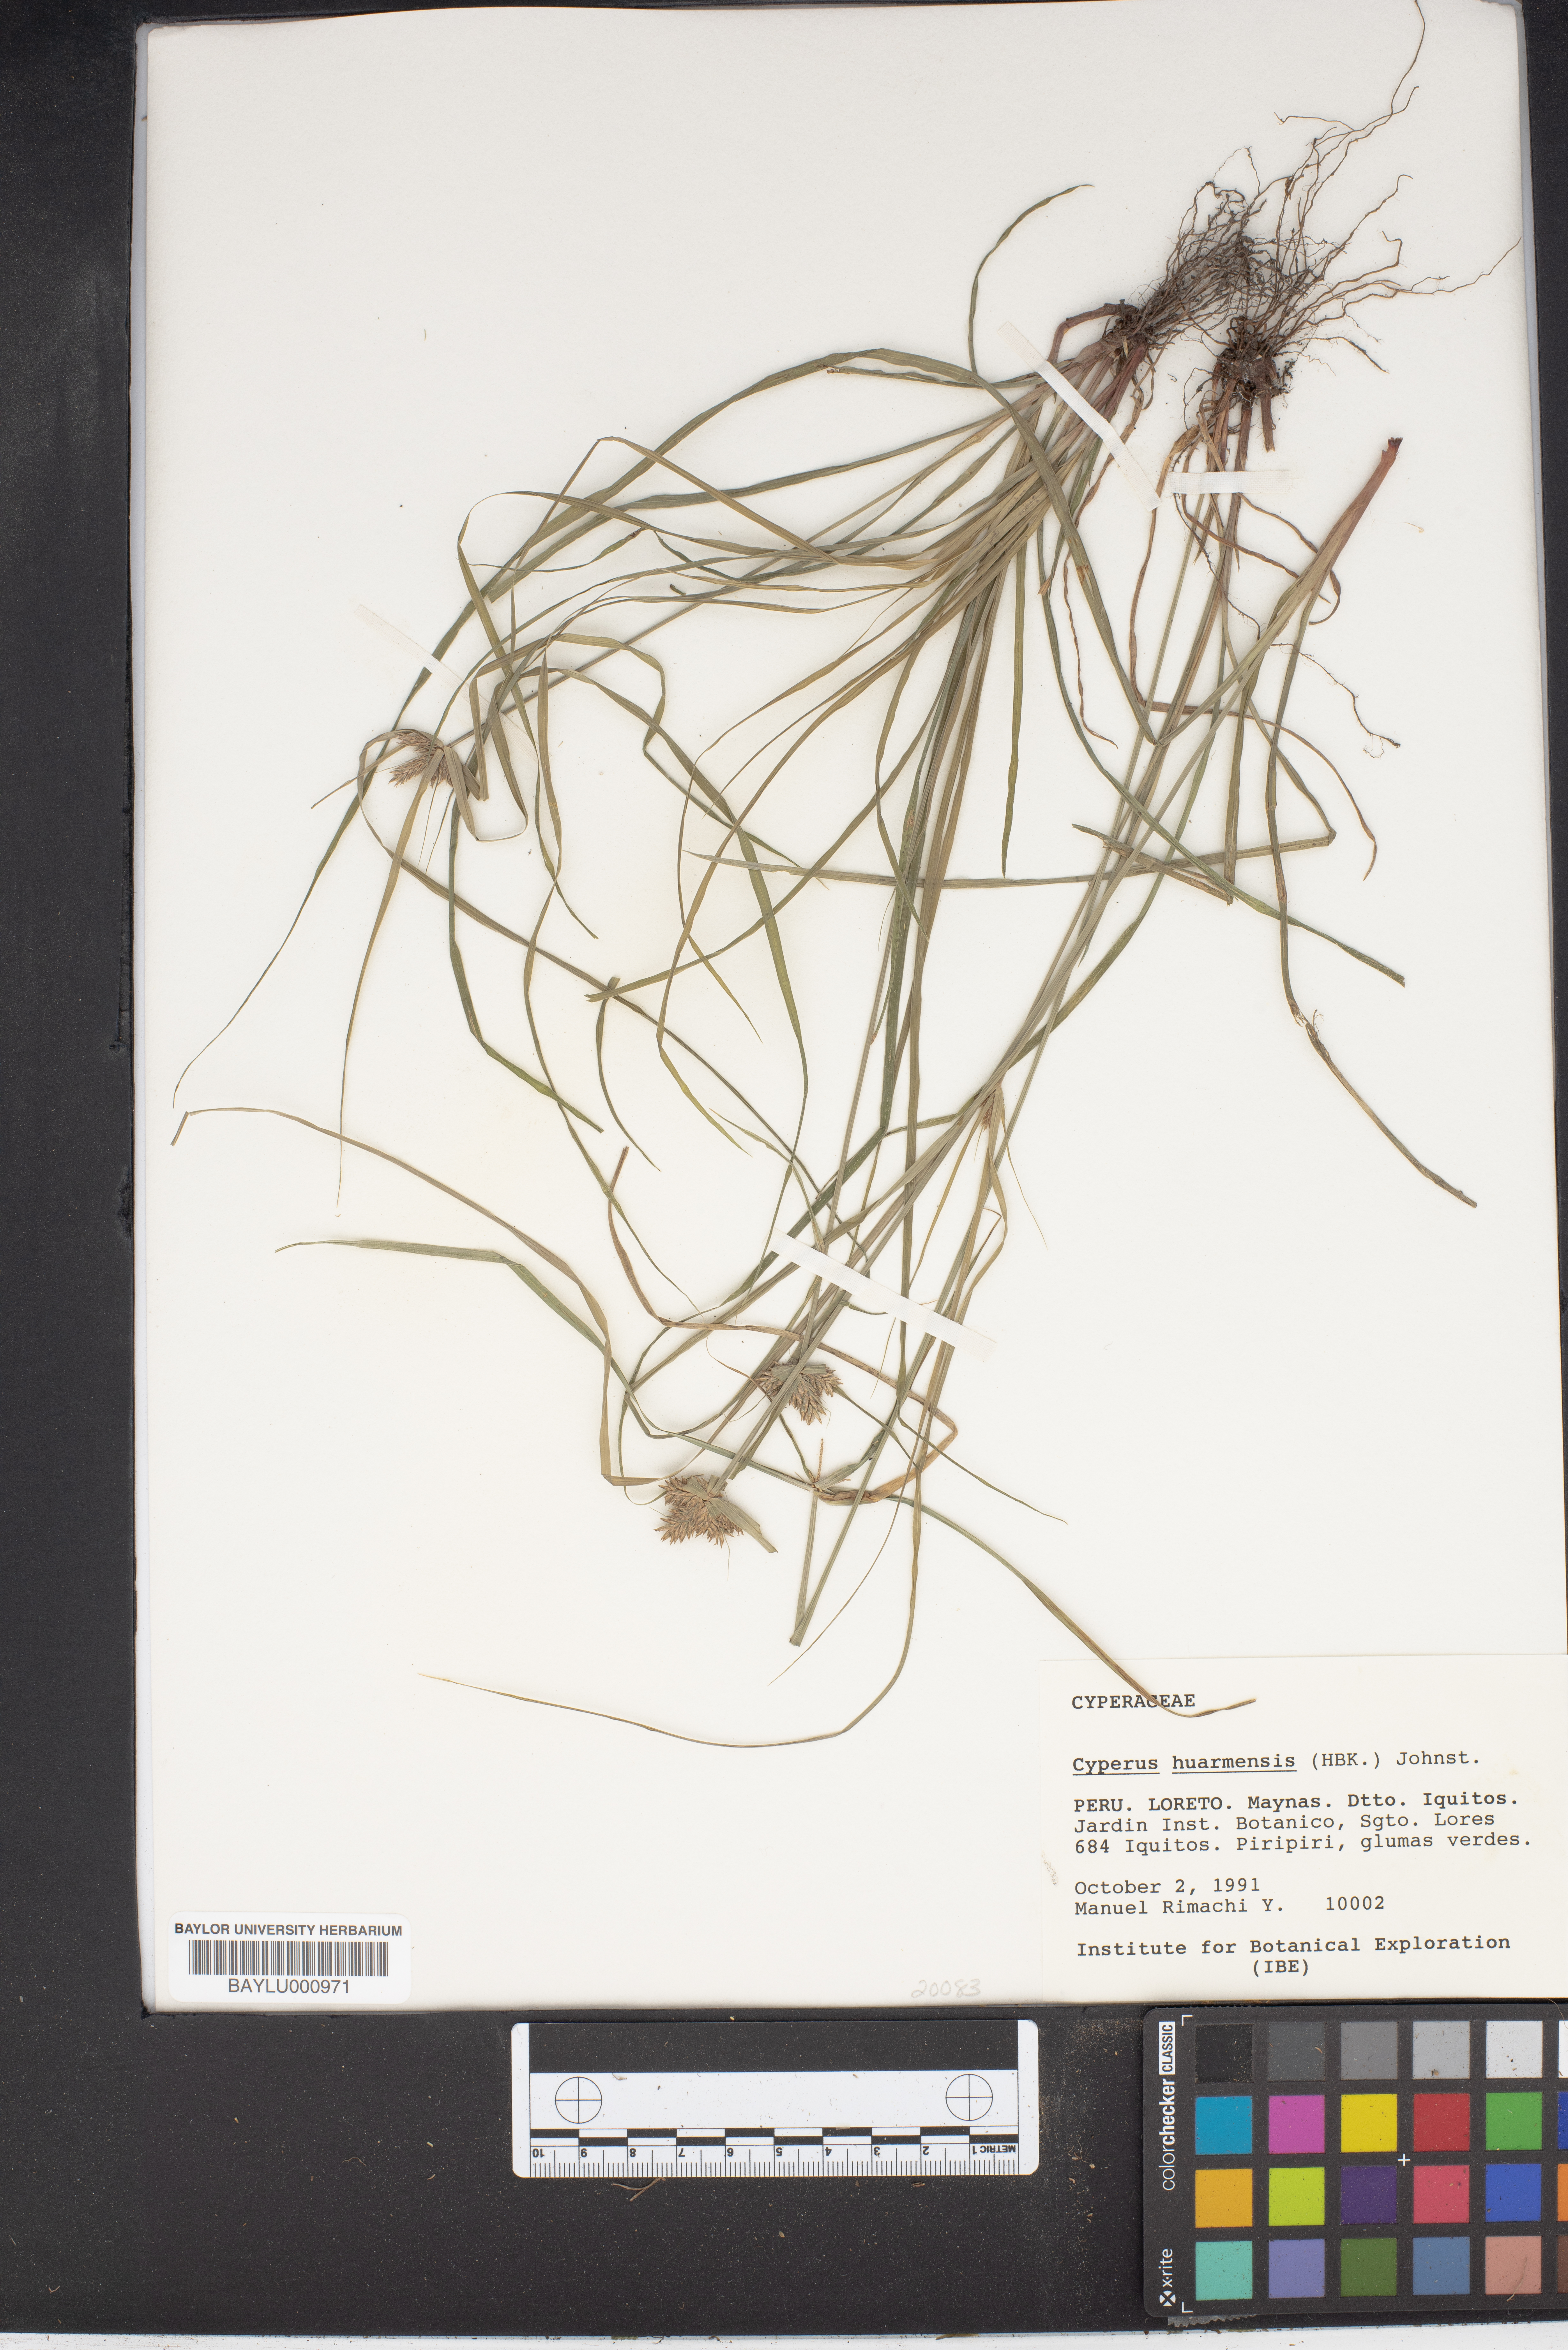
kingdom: Plantae
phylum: Tracheophyta
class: Liliopsida
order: Poales
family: Cyperaceae
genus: Cyperus
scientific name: Cyperus odoratus
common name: Fragrant flatsedge
